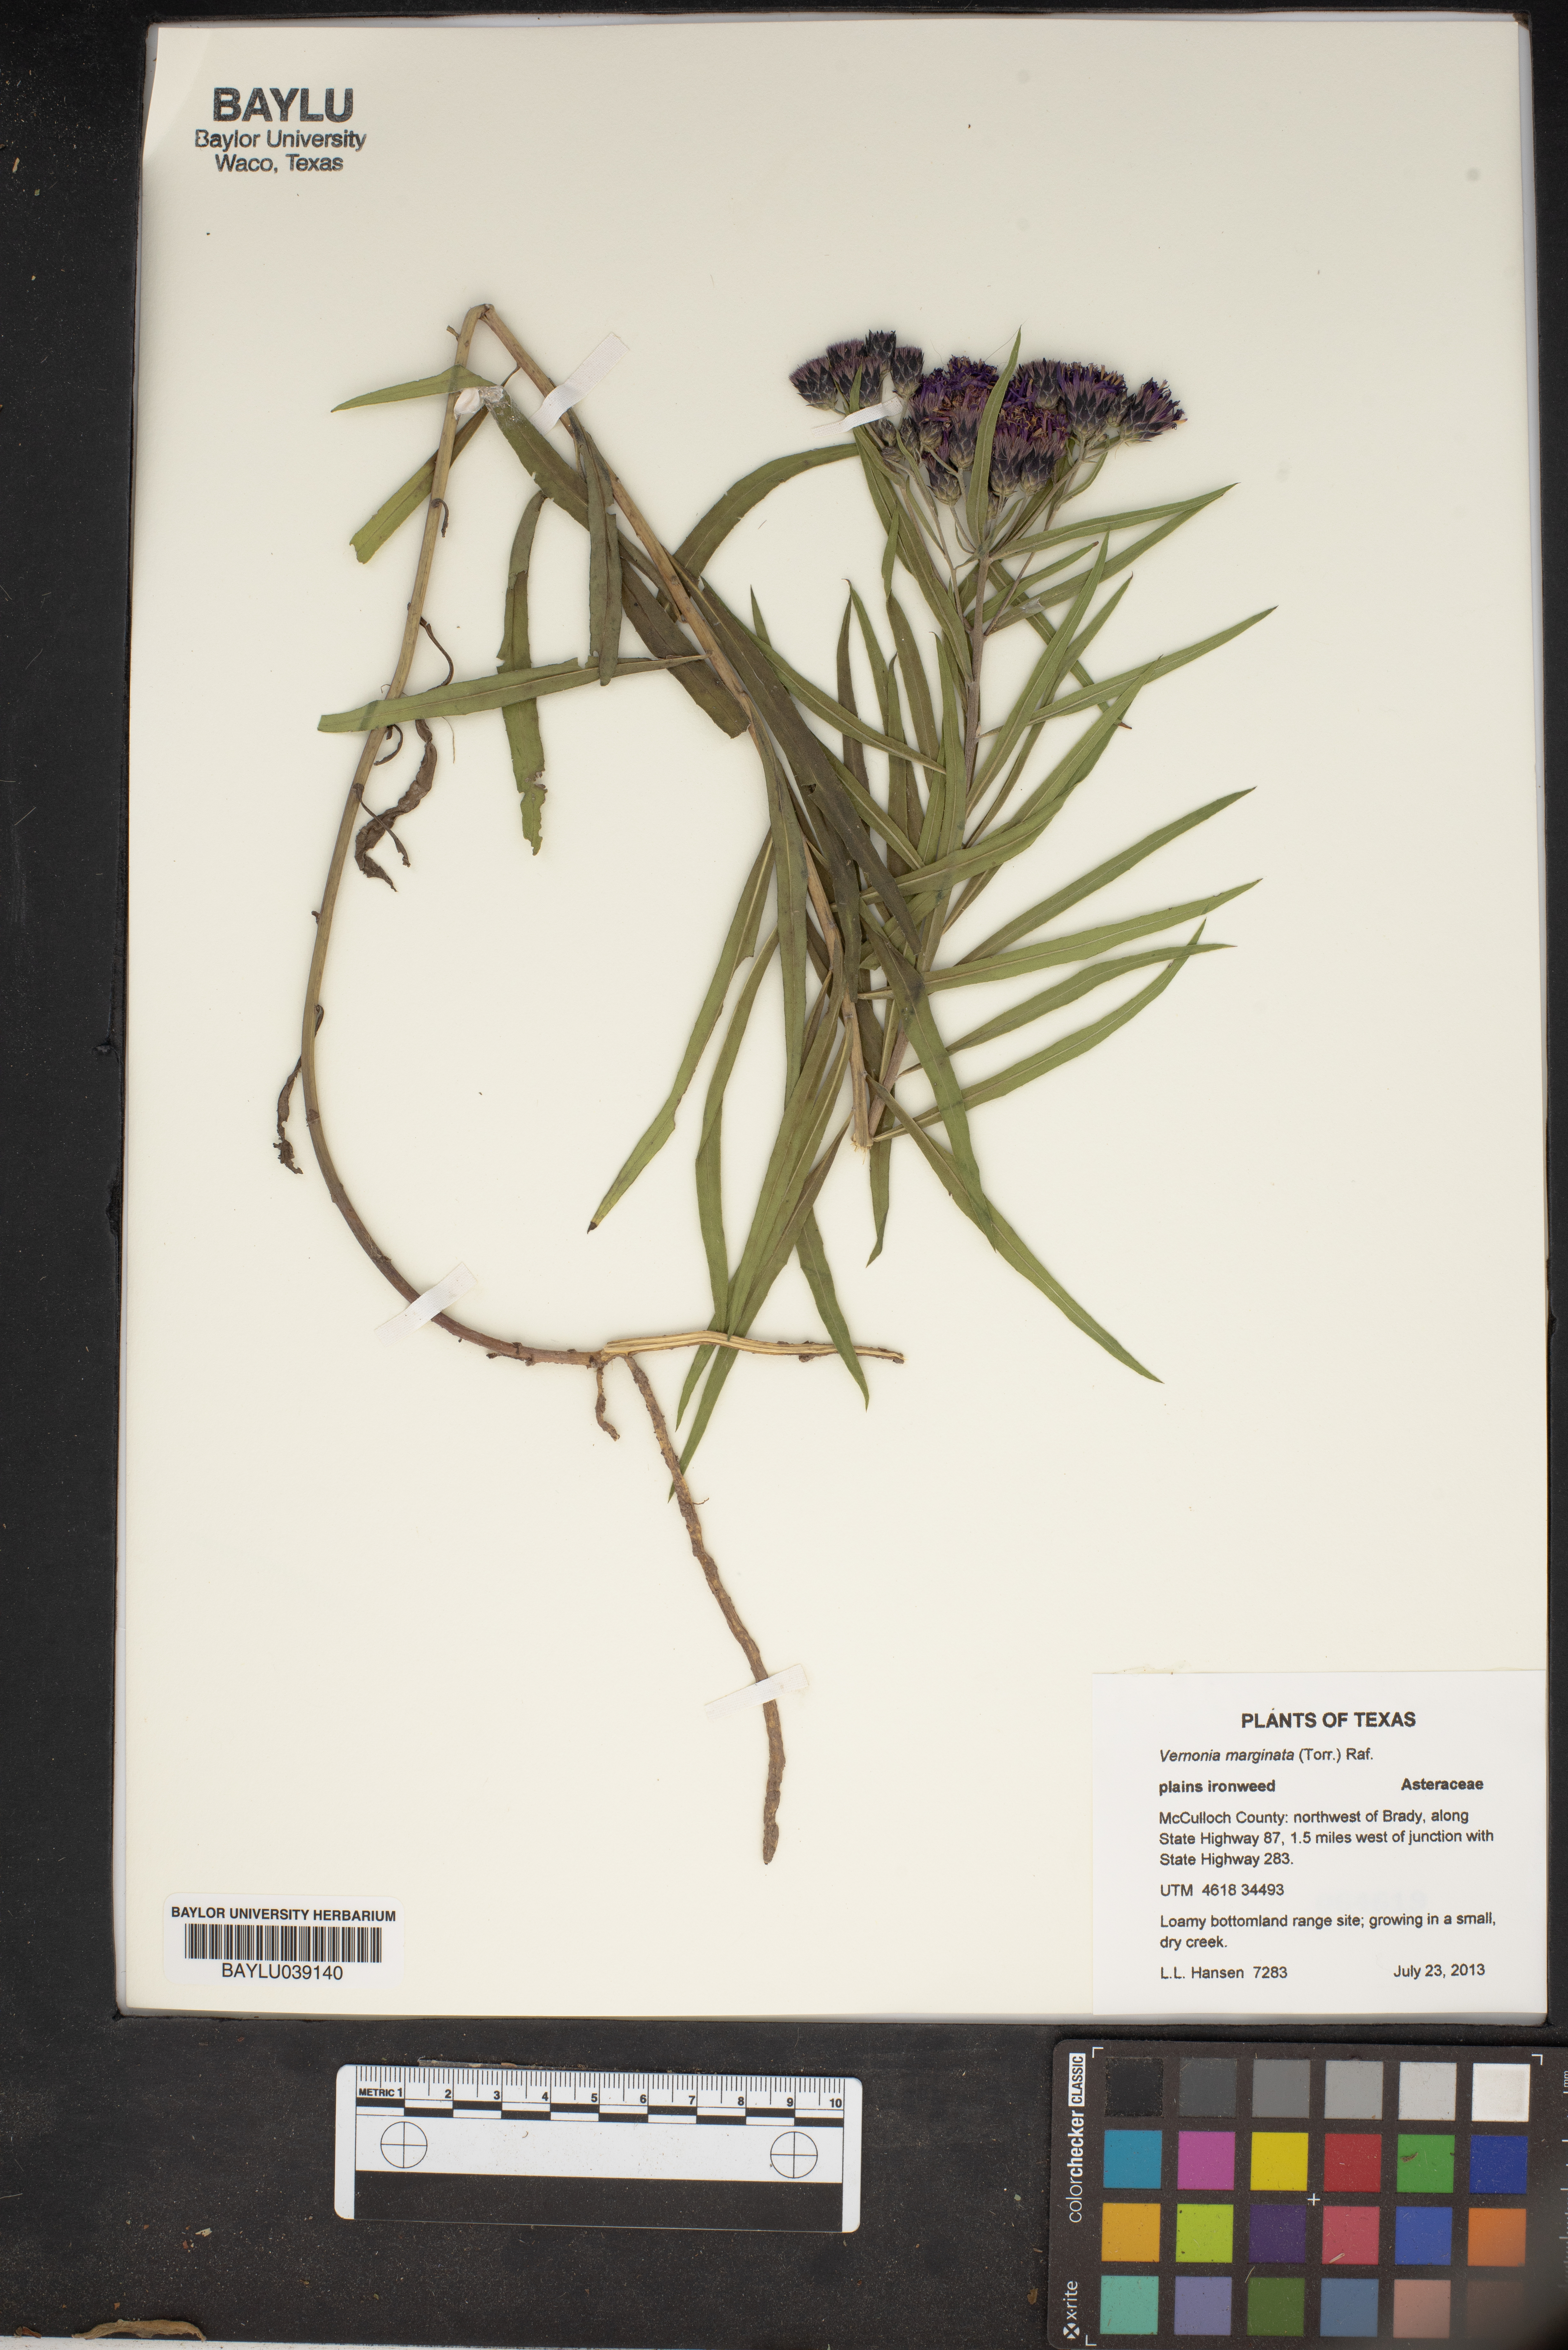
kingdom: Plantae
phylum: Tracheophyta
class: Magnoliopsida
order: Asterales
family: Asteraceae
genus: Vernonia
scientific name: Vernonia marginata
